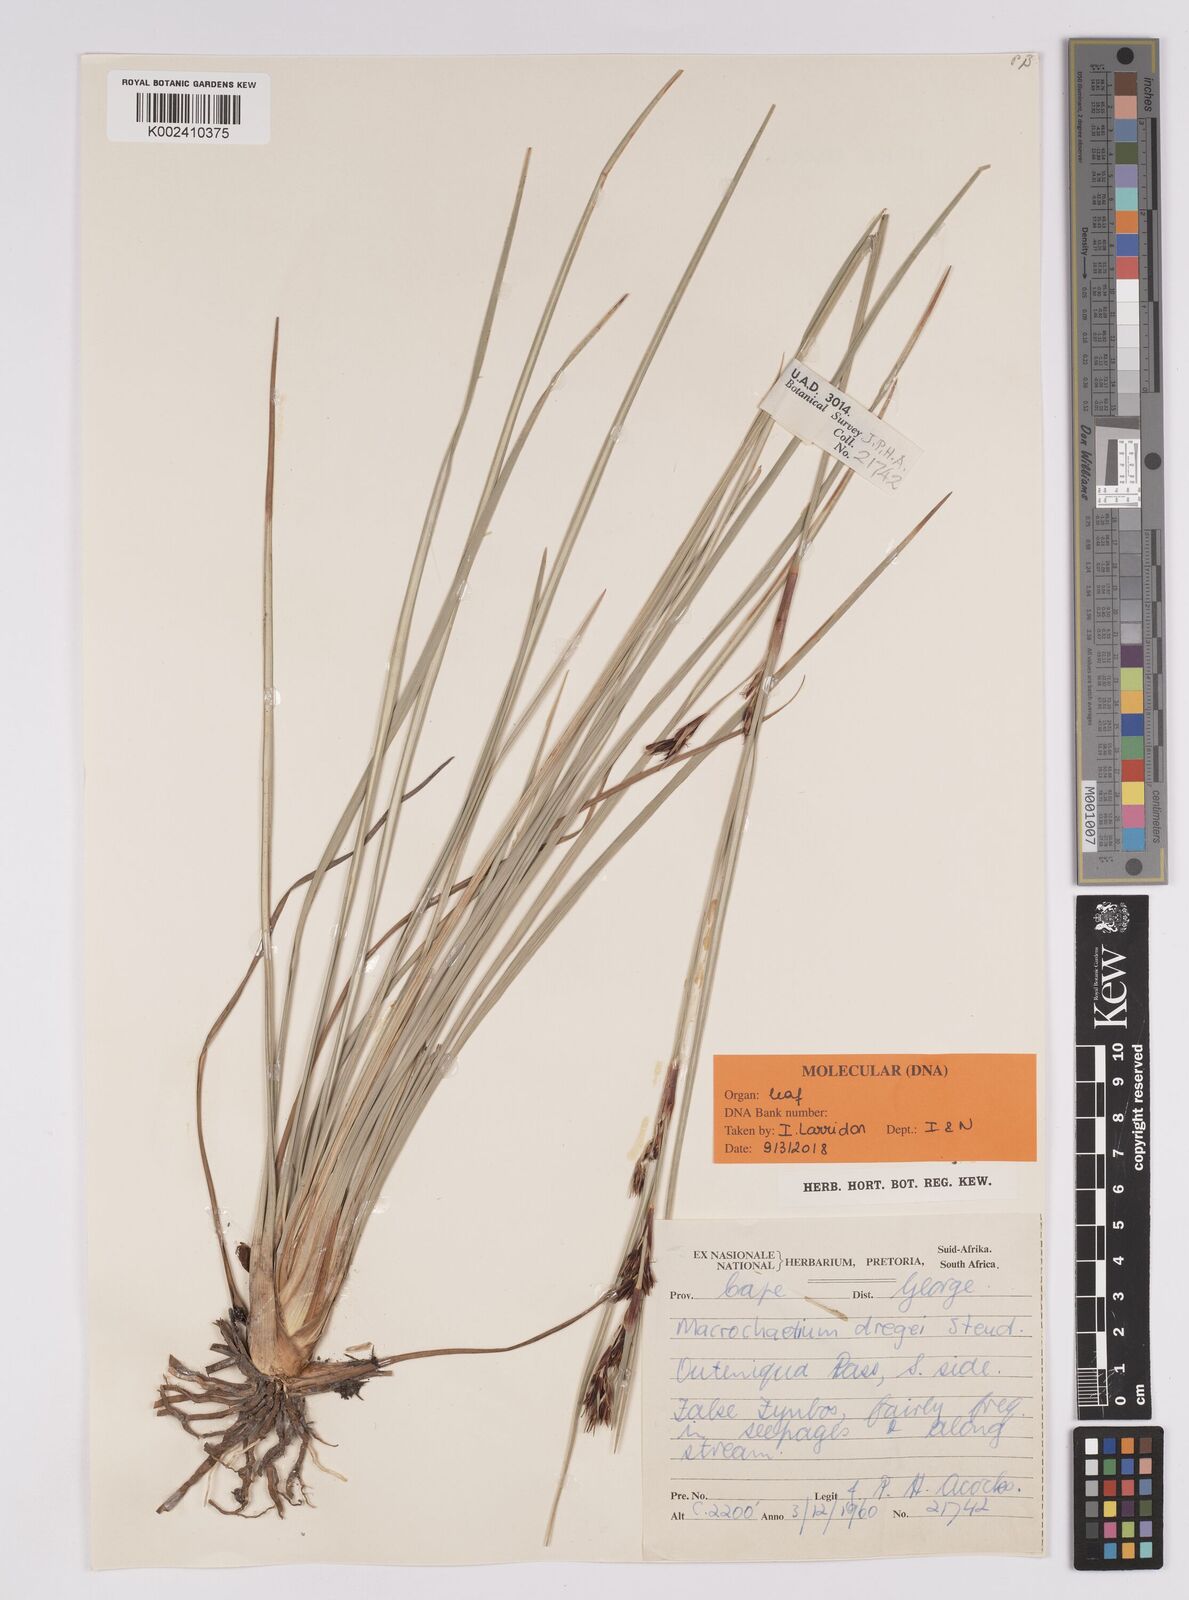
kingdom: Plantae
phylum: Tracheophyta
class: Liliopsida
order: Poales
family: Cyperaceae
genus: Cyathocoma
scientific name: Cyathocoma hexandra
